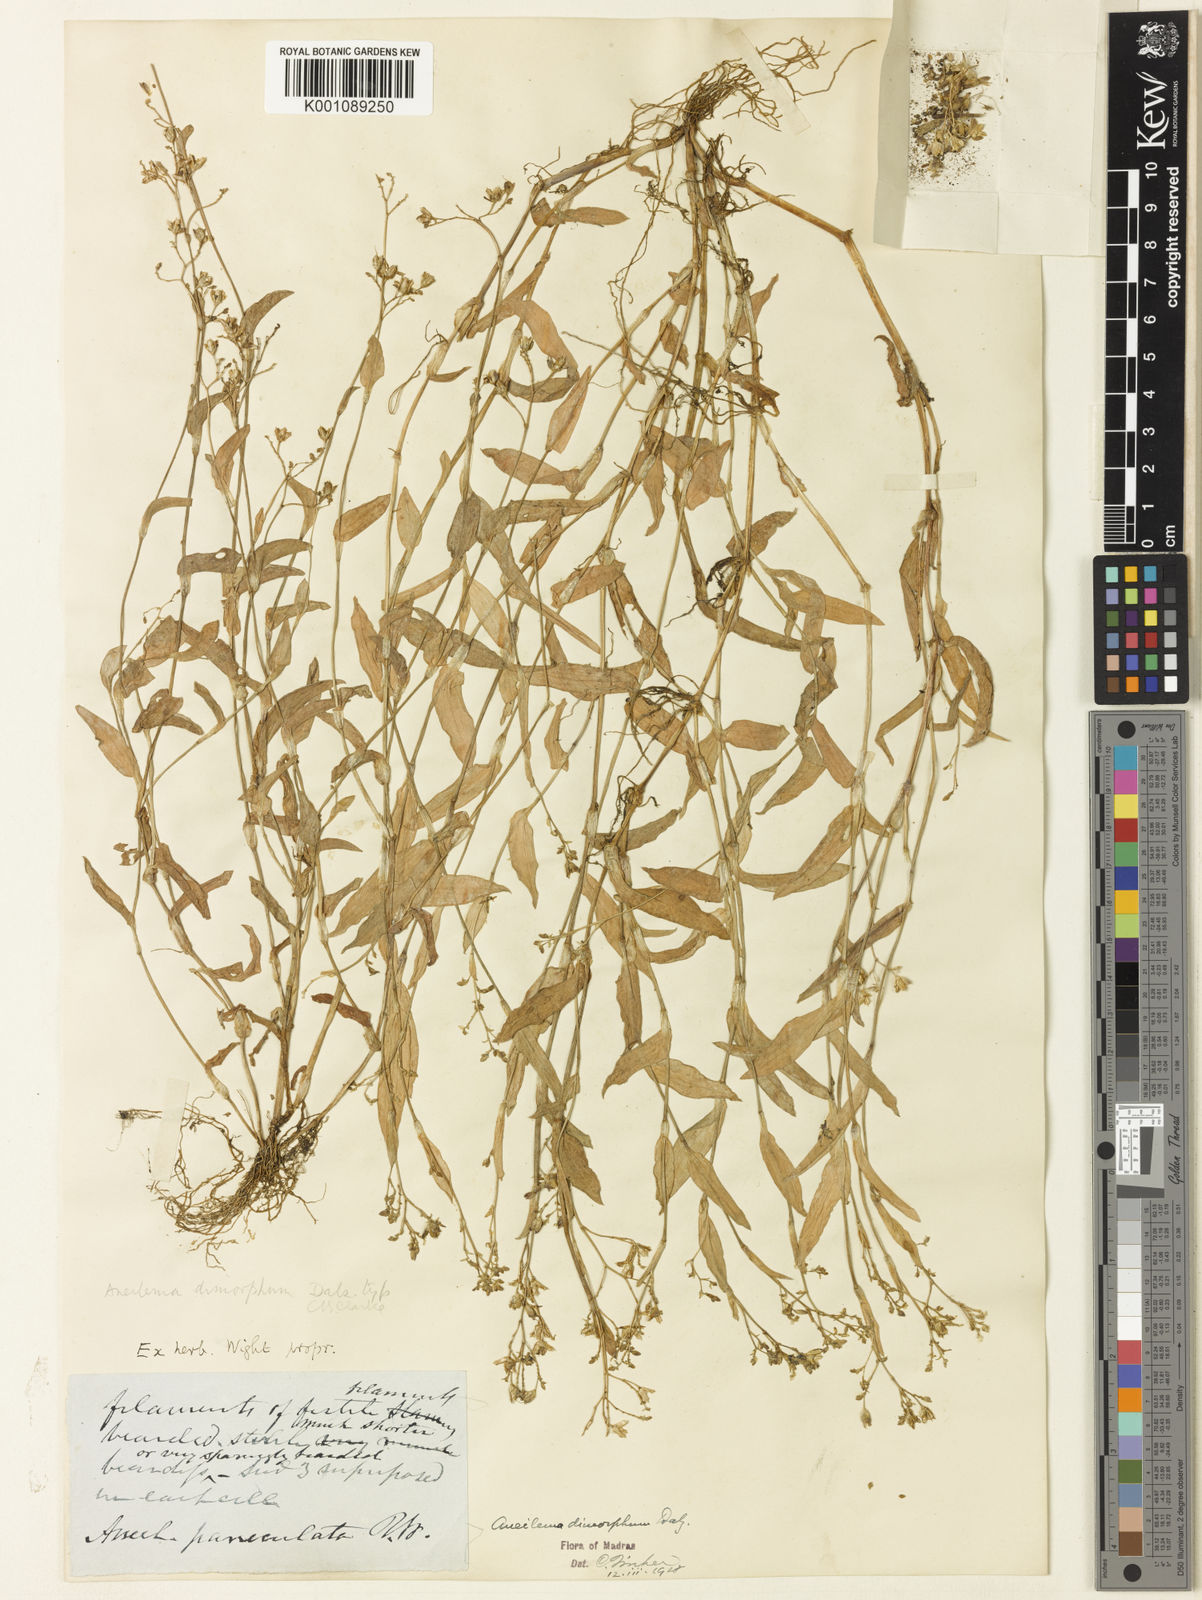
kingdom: Plantae
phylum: Tracheophyta
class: Liliopsida
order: Commelinales
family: Commelinaceae
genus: Murdannia
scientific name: Murdannia
